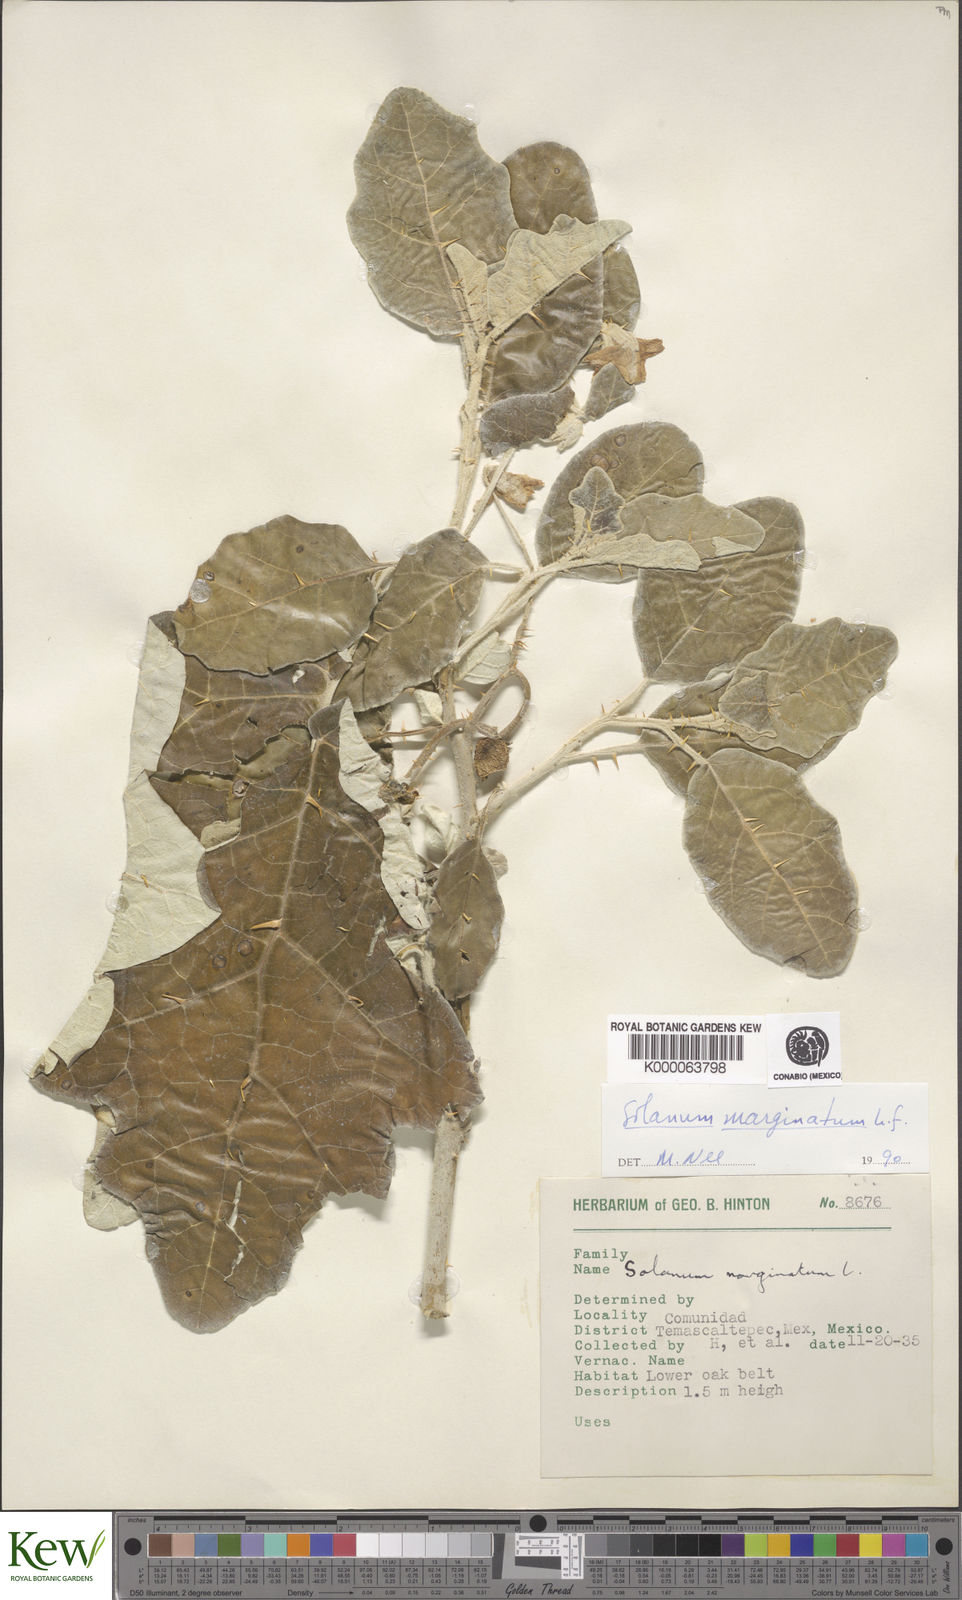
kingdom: Plantae
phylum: Tracheophyta
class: Magnoliopsida
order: Solanales
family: Solanaceae
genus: Solanum
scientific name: Solanum marginatum
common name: Purple african nightshade
